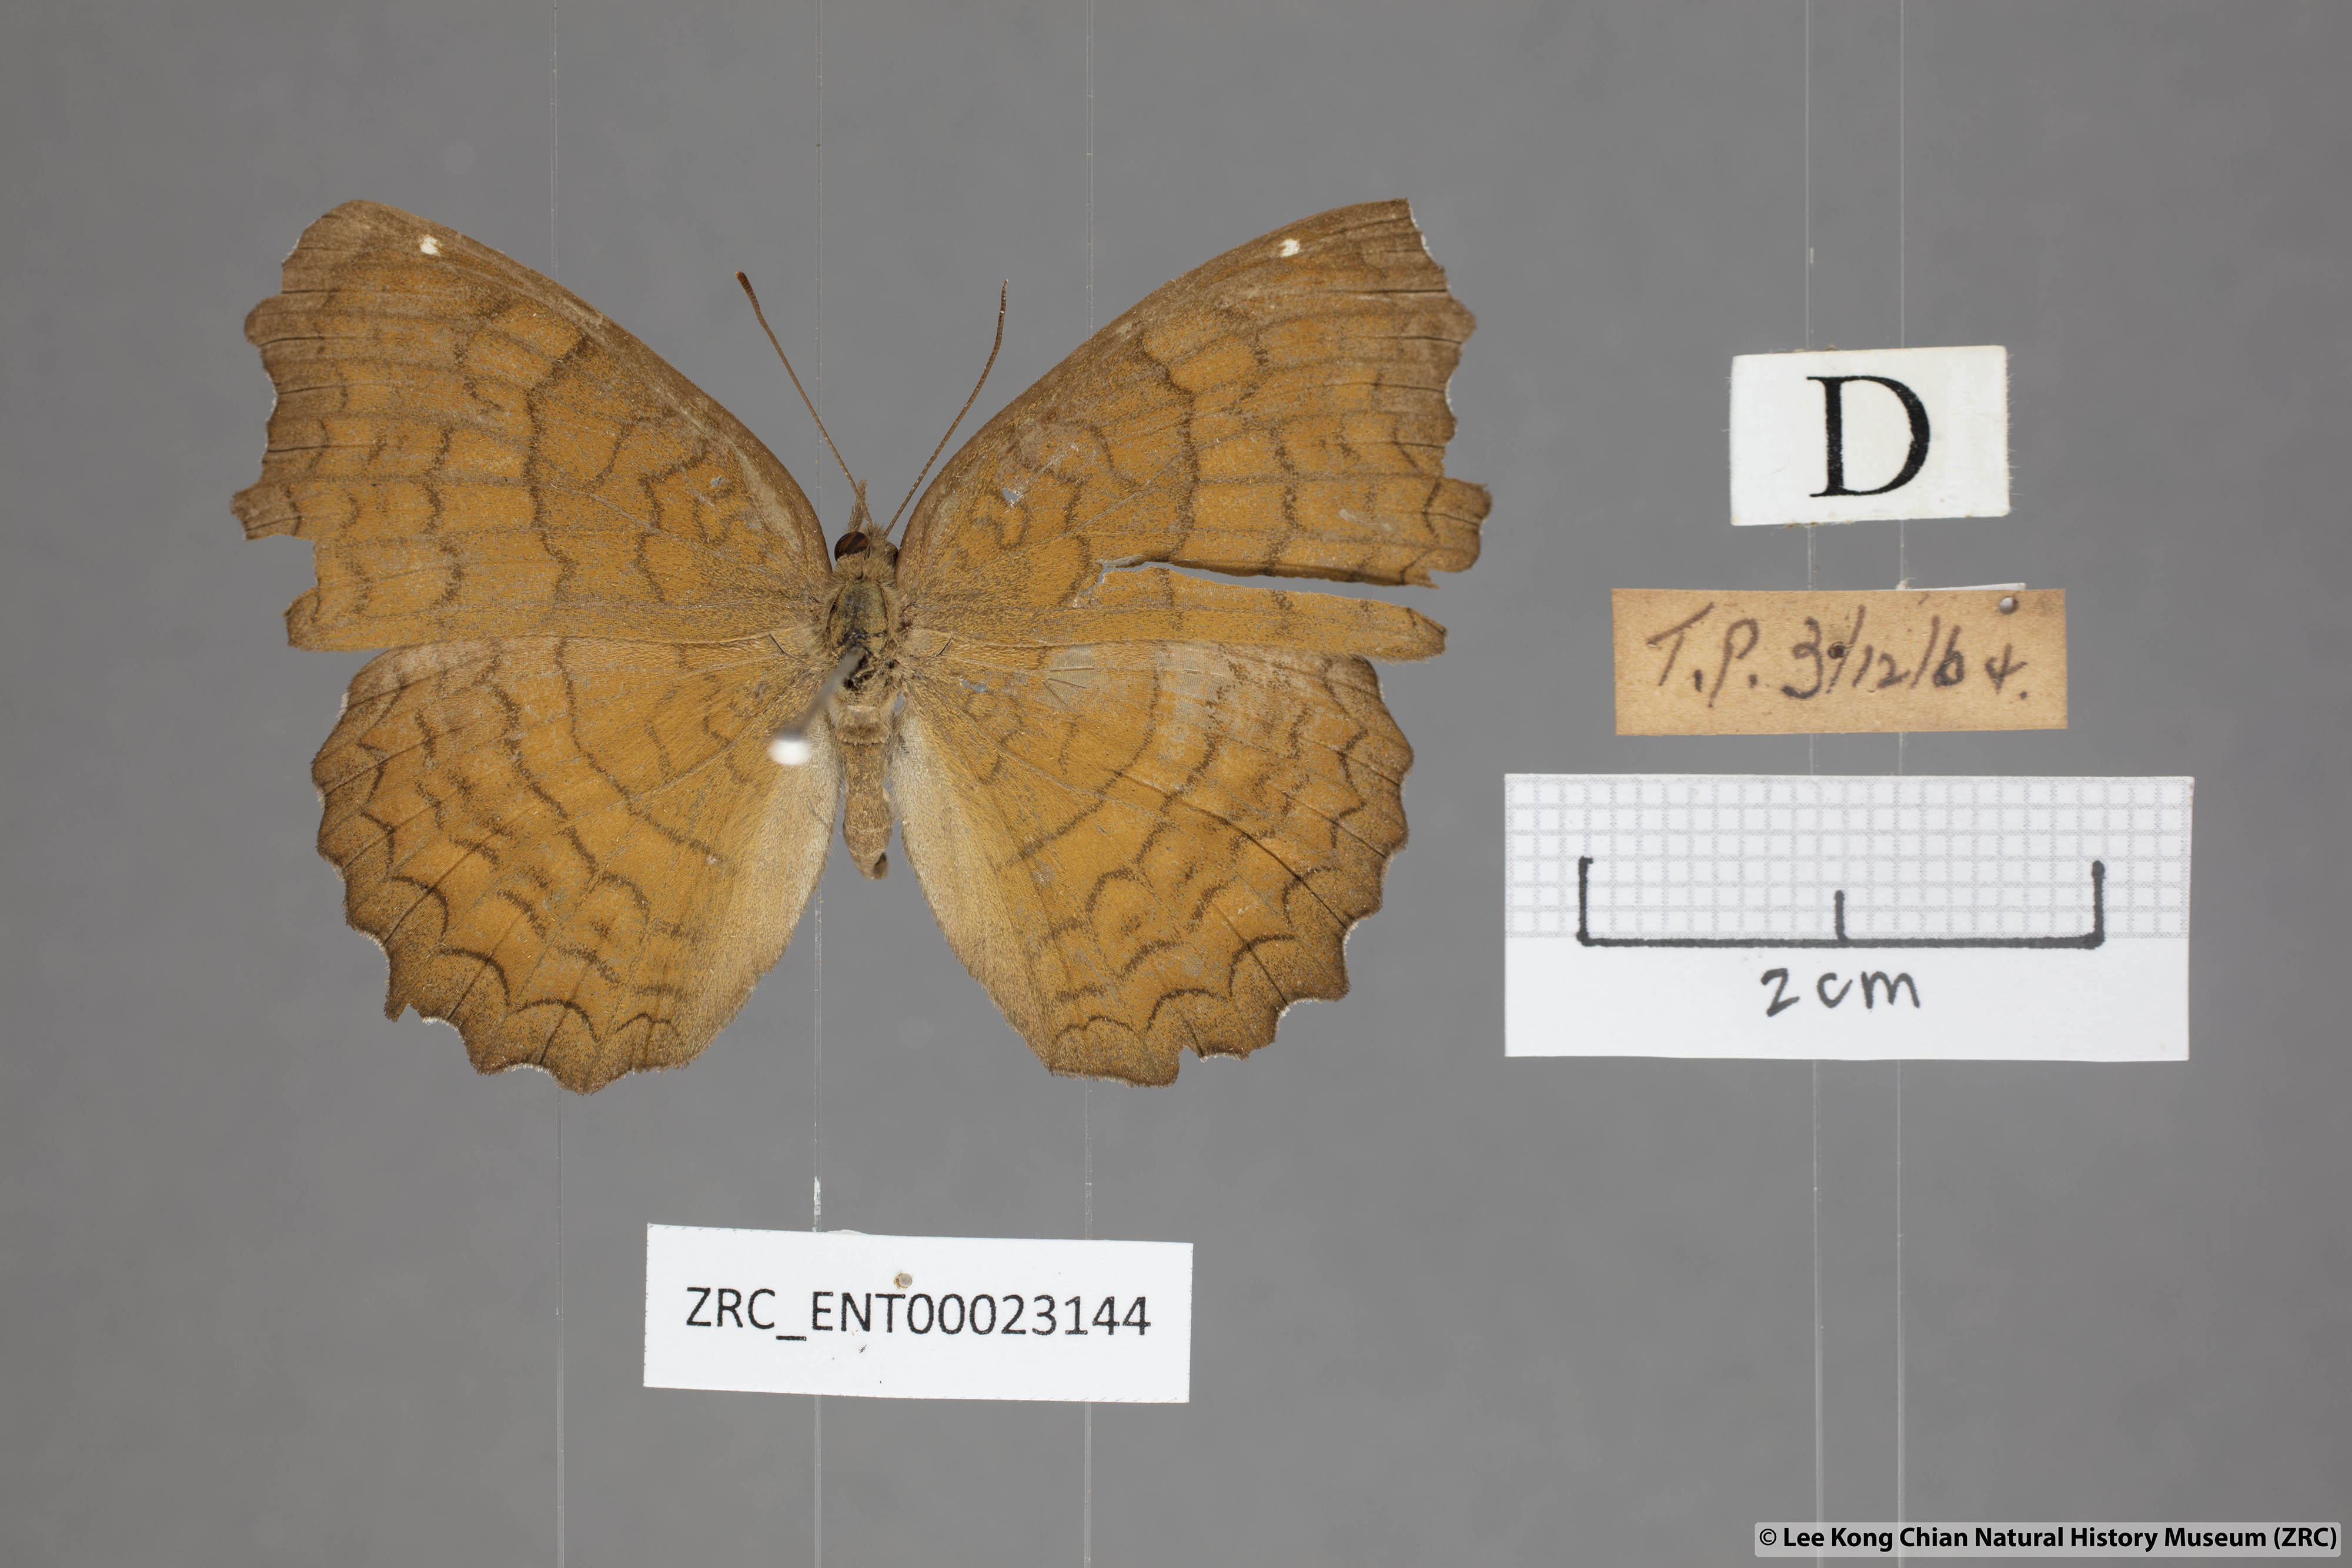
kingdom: Animalia
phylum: Arthropoda
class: Insecta
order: Lepidoptera
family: Nymphalidae
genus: Ariadne
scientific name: Ariadne ariadne
